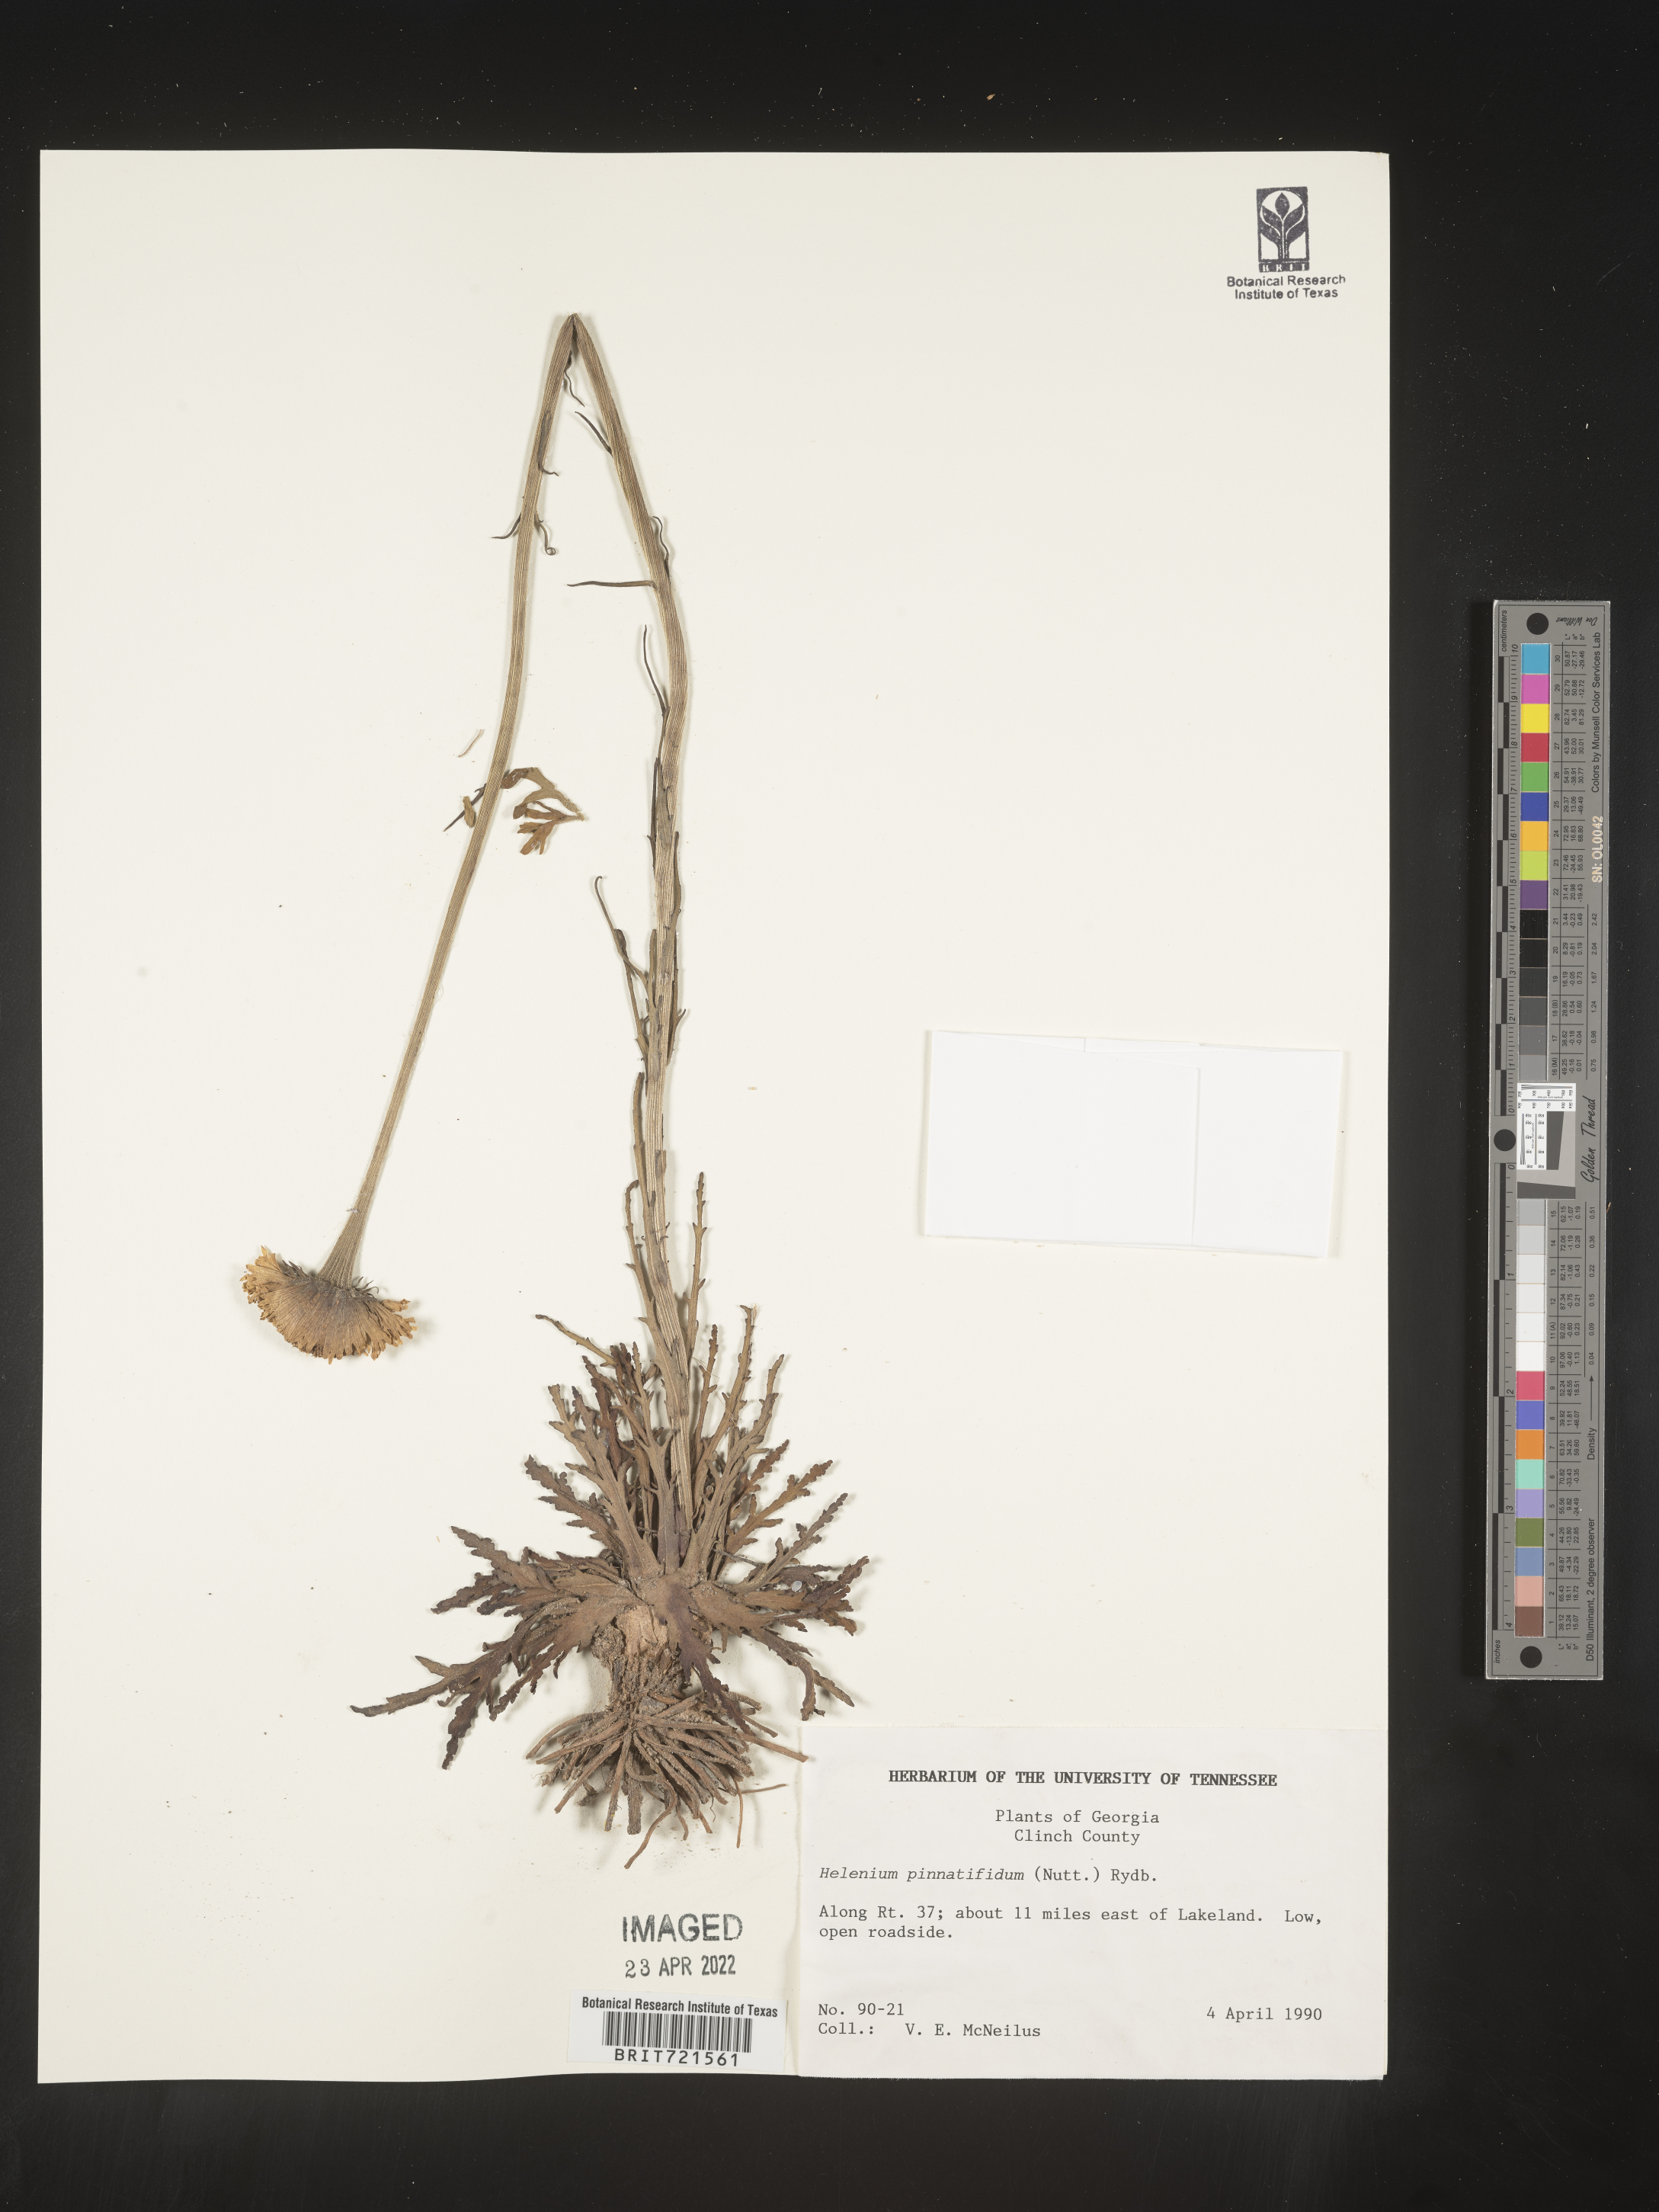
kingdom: Plantae
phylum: Tracheophyta
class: Magnoliopsida
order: Asterales
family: Asteraceae
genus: Helenium
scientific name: Helenium pinnatifidum
